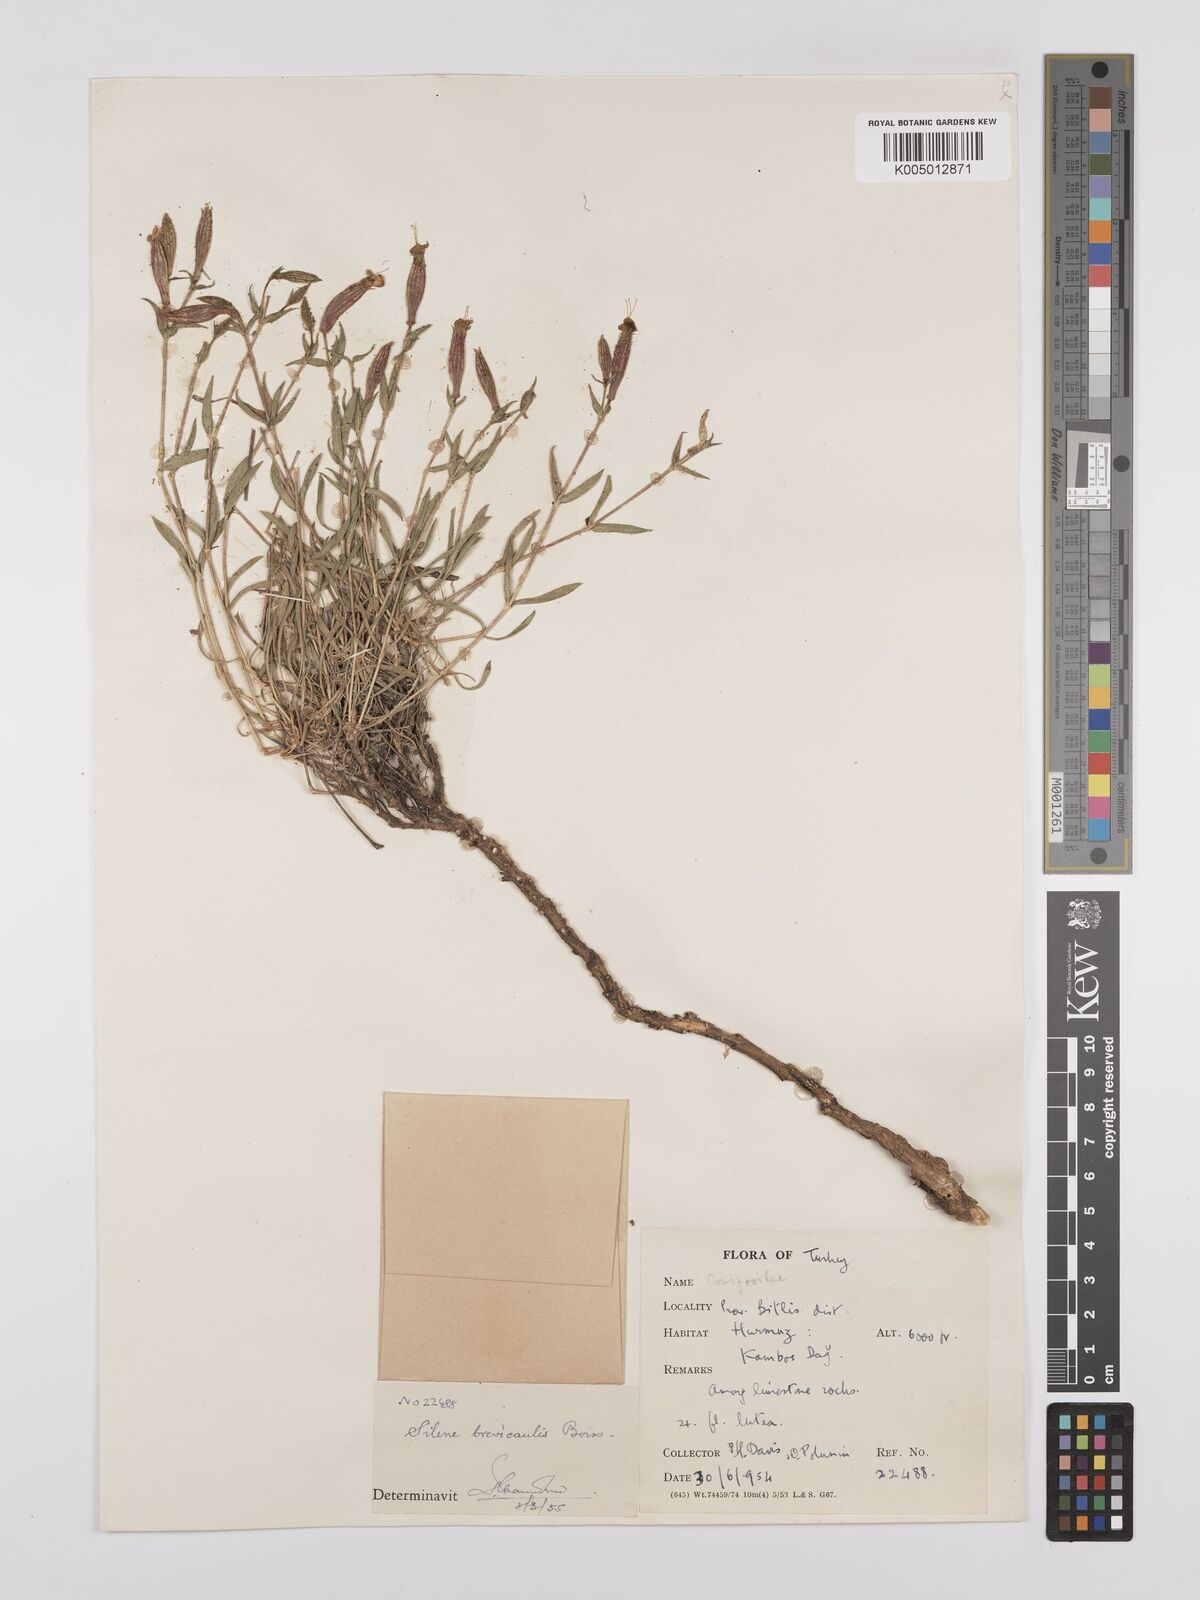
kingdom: Plantae
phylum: Tracheophyta
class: Magnoliopsida
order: Caryophyllales
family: Caryophyllaceae
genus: Silene
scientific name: Silene brevicaulis
